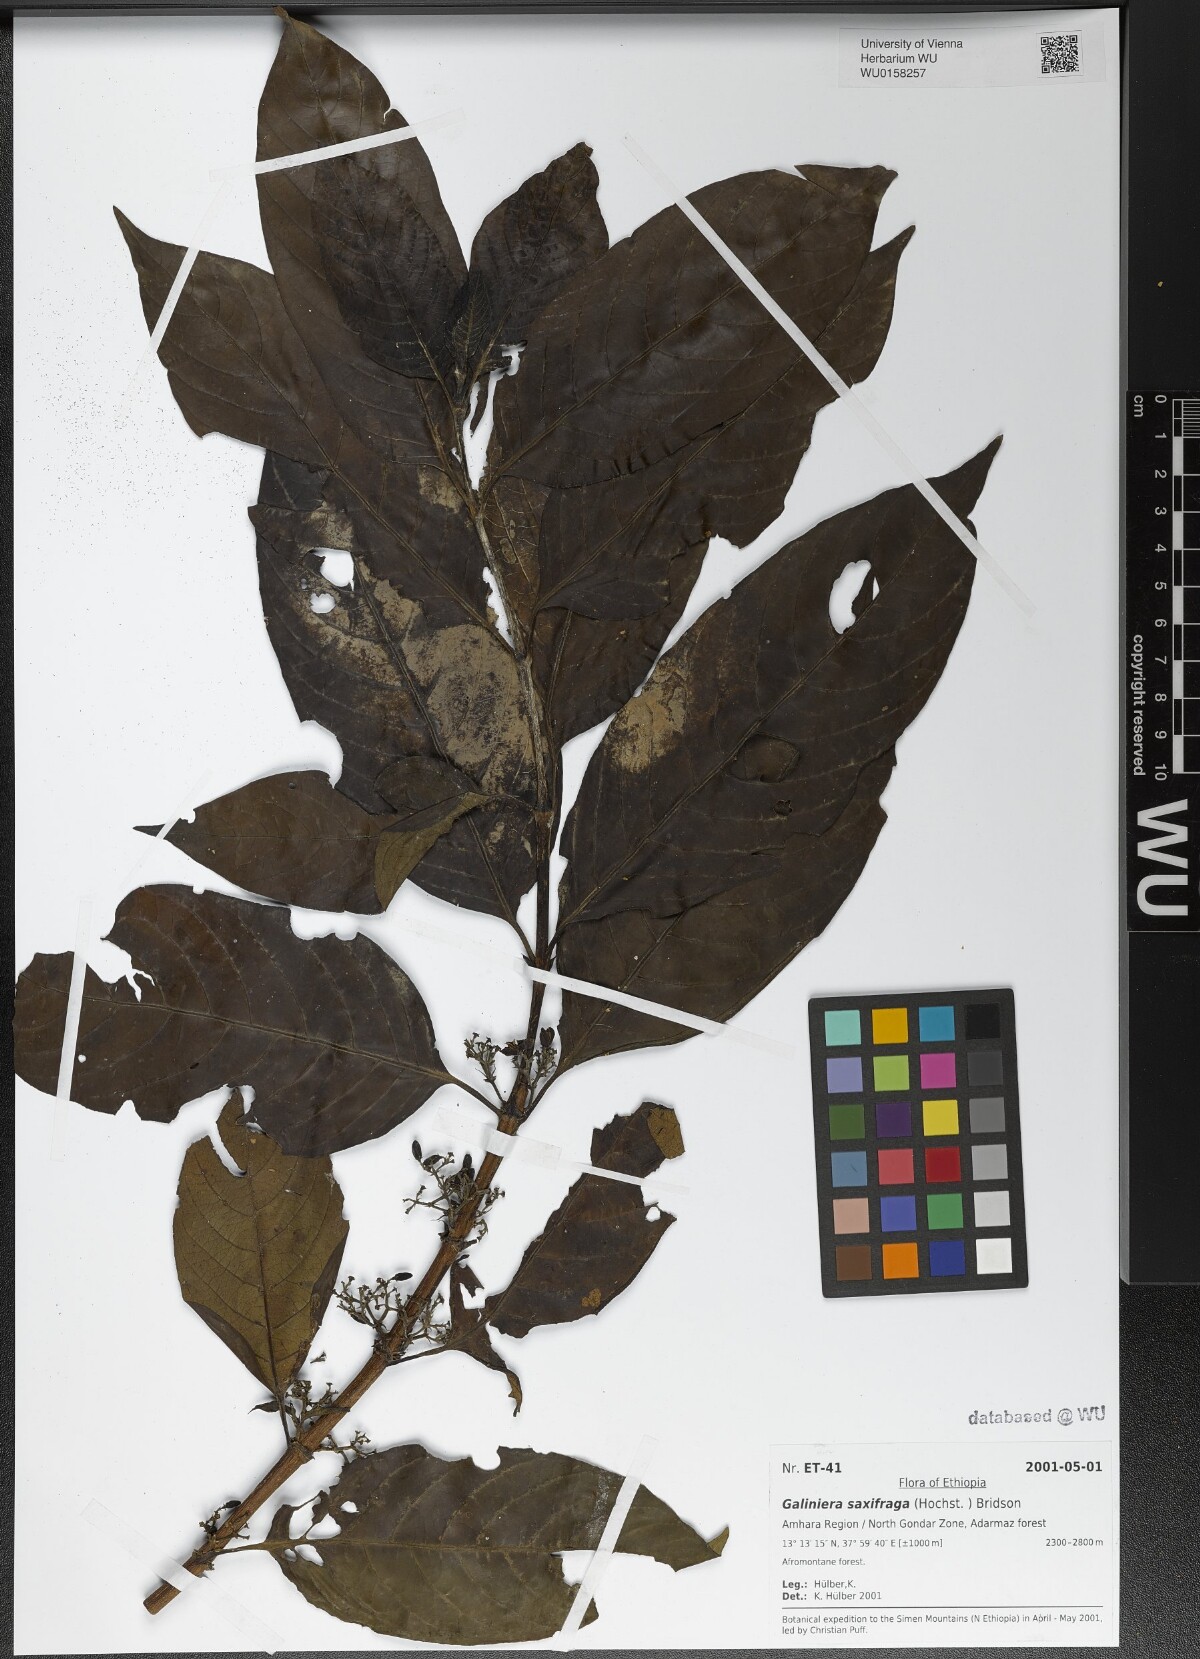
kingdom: Plantae
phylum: Tracheophyta
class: Magnoliopsida
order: Gentianales
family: Rubiaceae
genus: Galiniera
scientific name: Galiniera saxifraga
